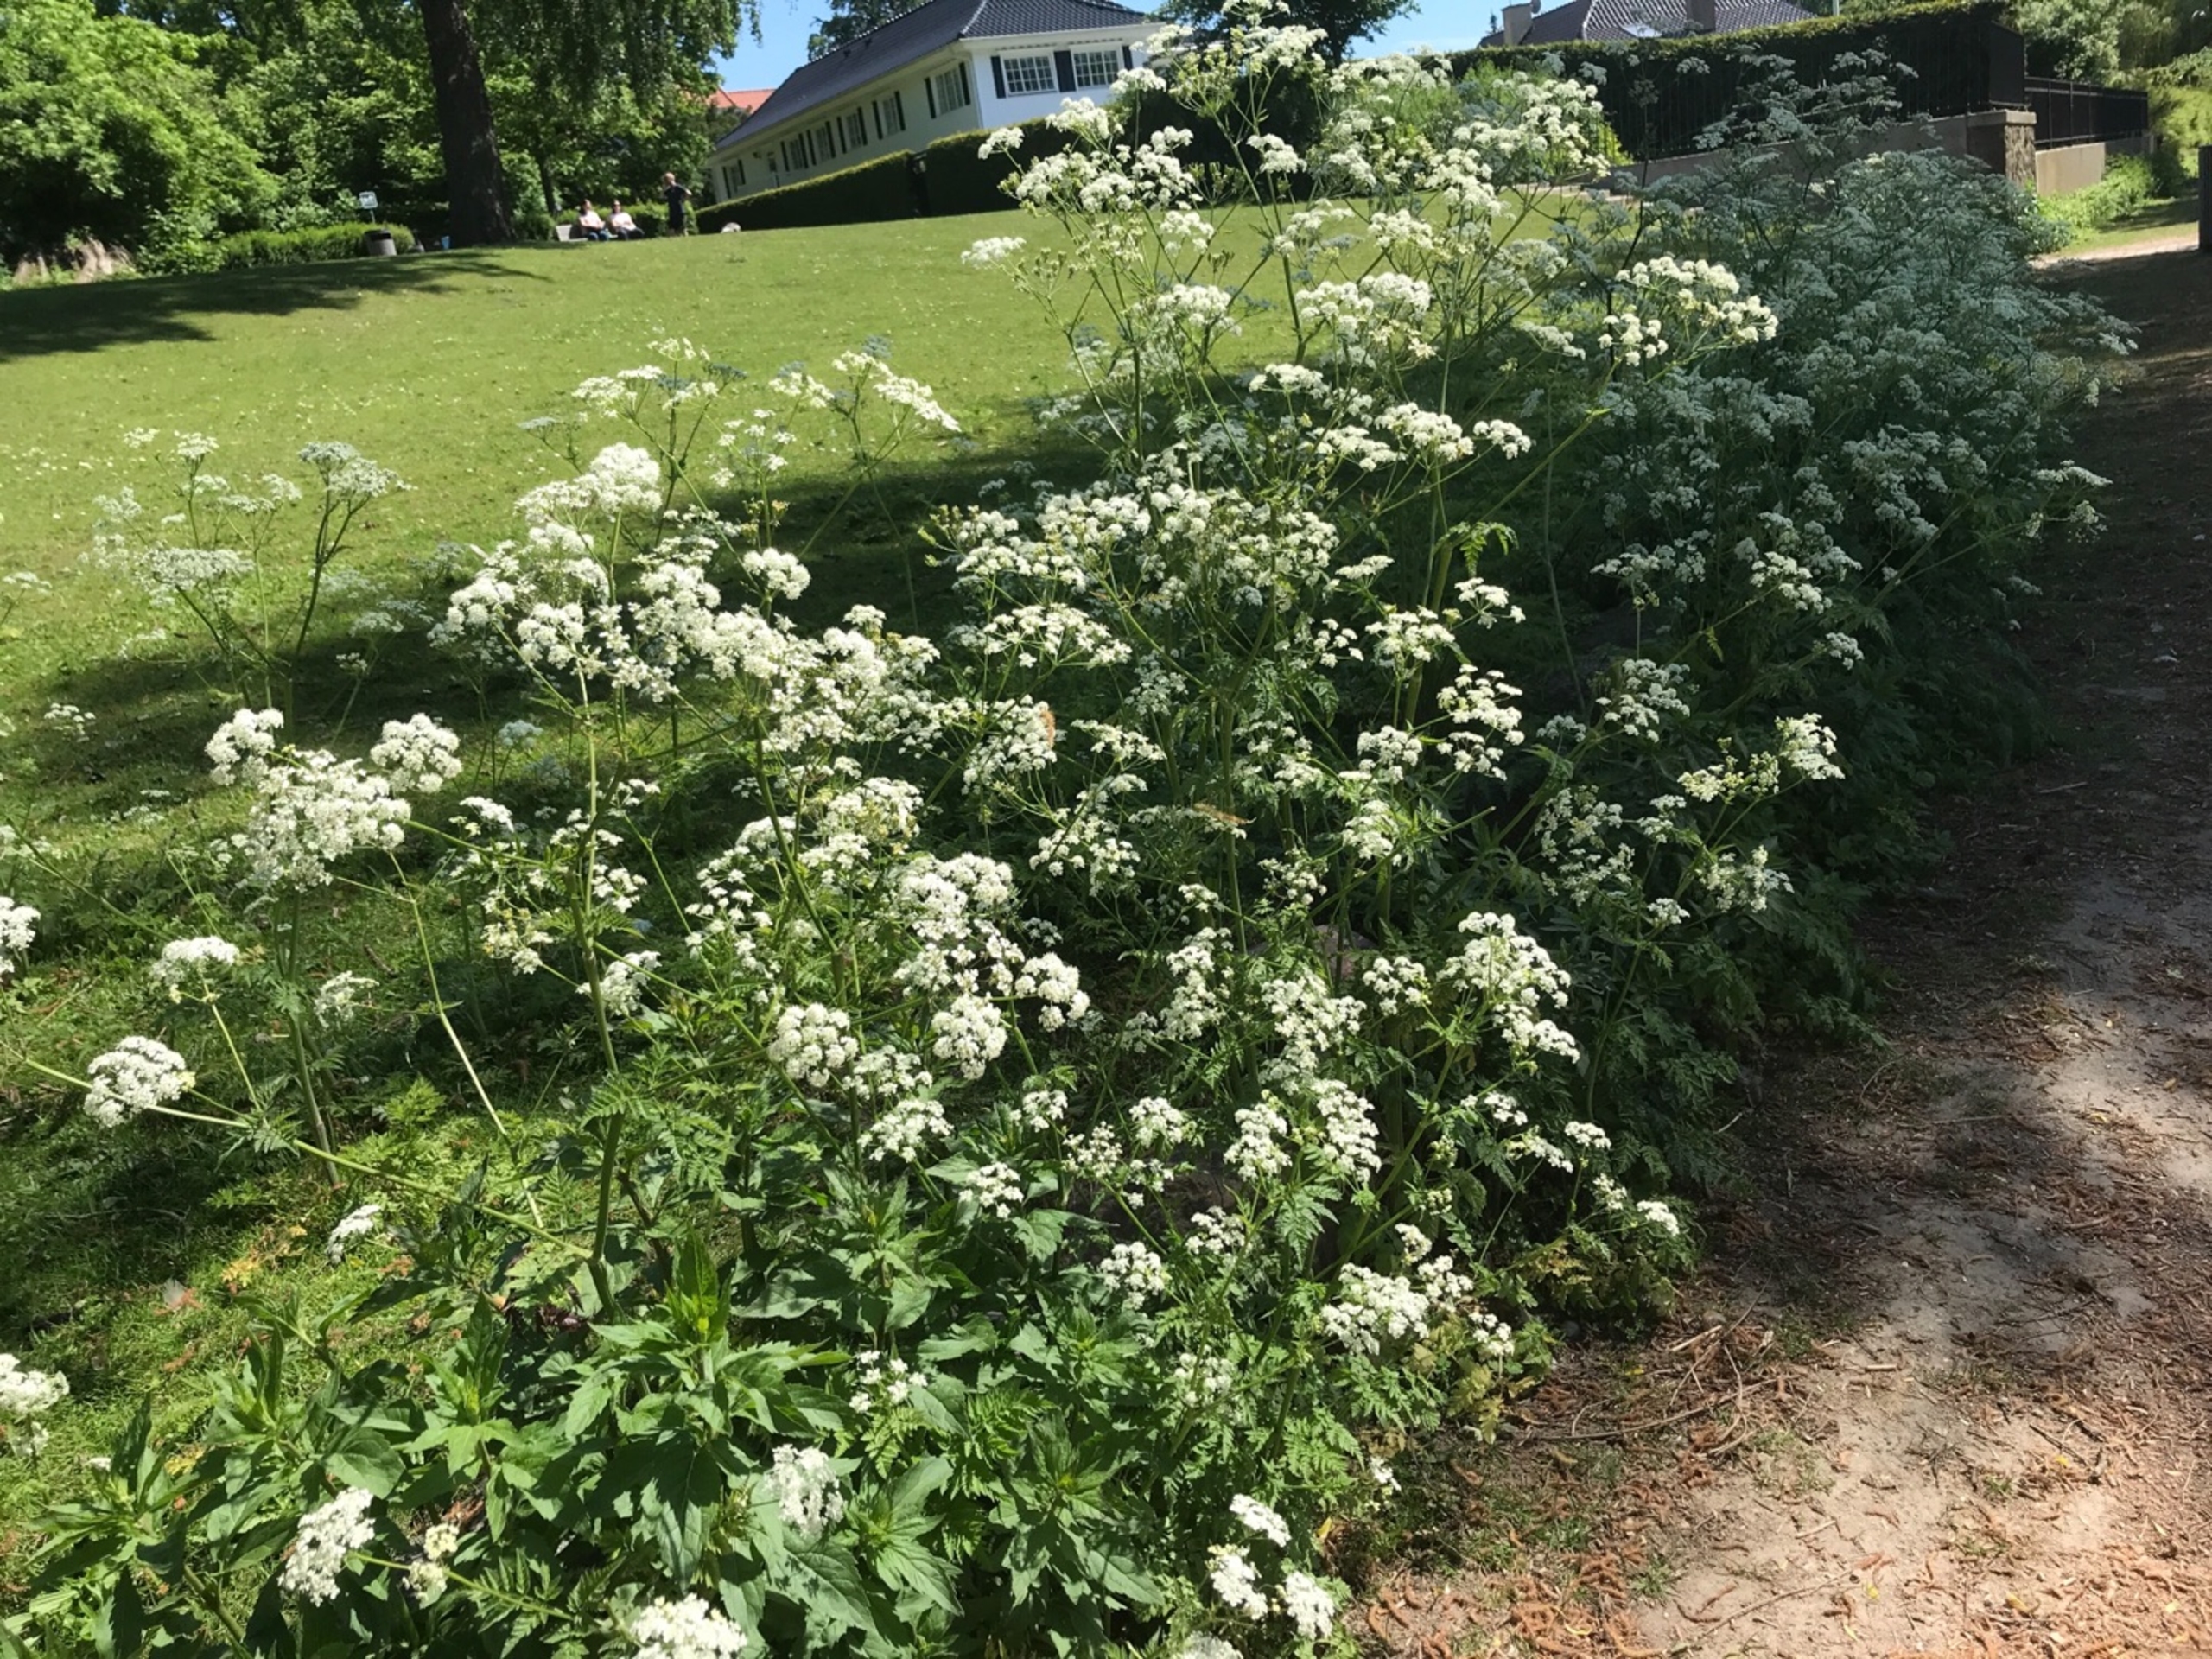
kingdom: Plantae
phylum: Tracheophyta
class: Magnoliopsida
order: Apiales
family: Apiaceae
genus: Anthriscus
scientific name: Anthriscus sylvestris
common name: Vild kørvel
